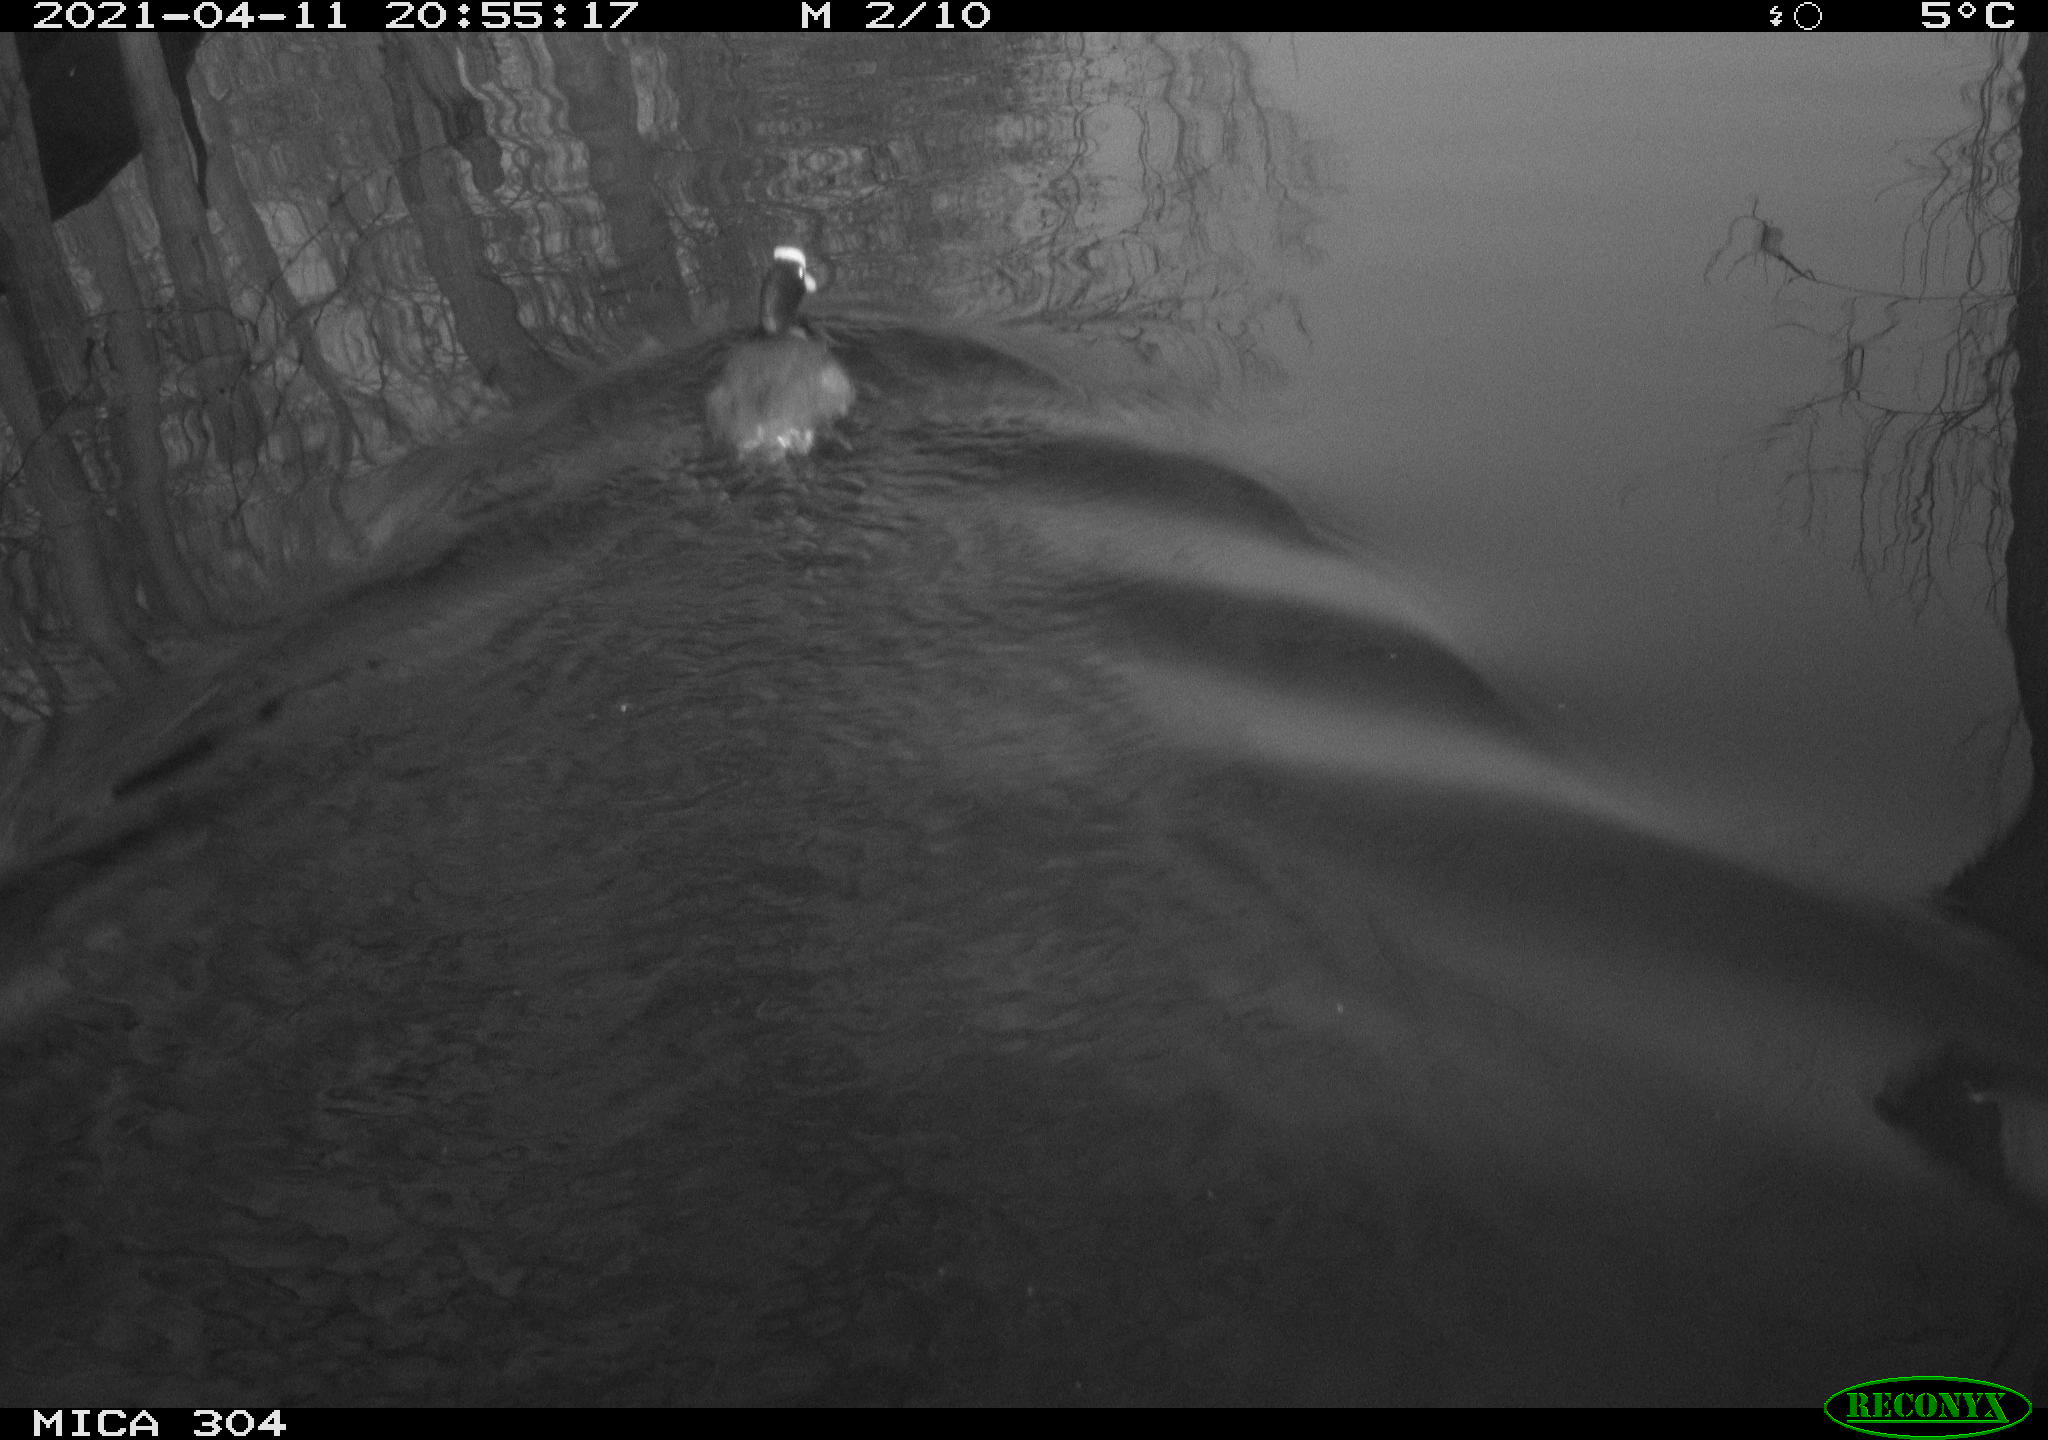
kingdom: Animalia
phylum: Chordata
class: Aves
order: Gruiformes
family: Rallidae
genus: Fulica
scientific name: Fulica atra
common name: Eurasian coot
